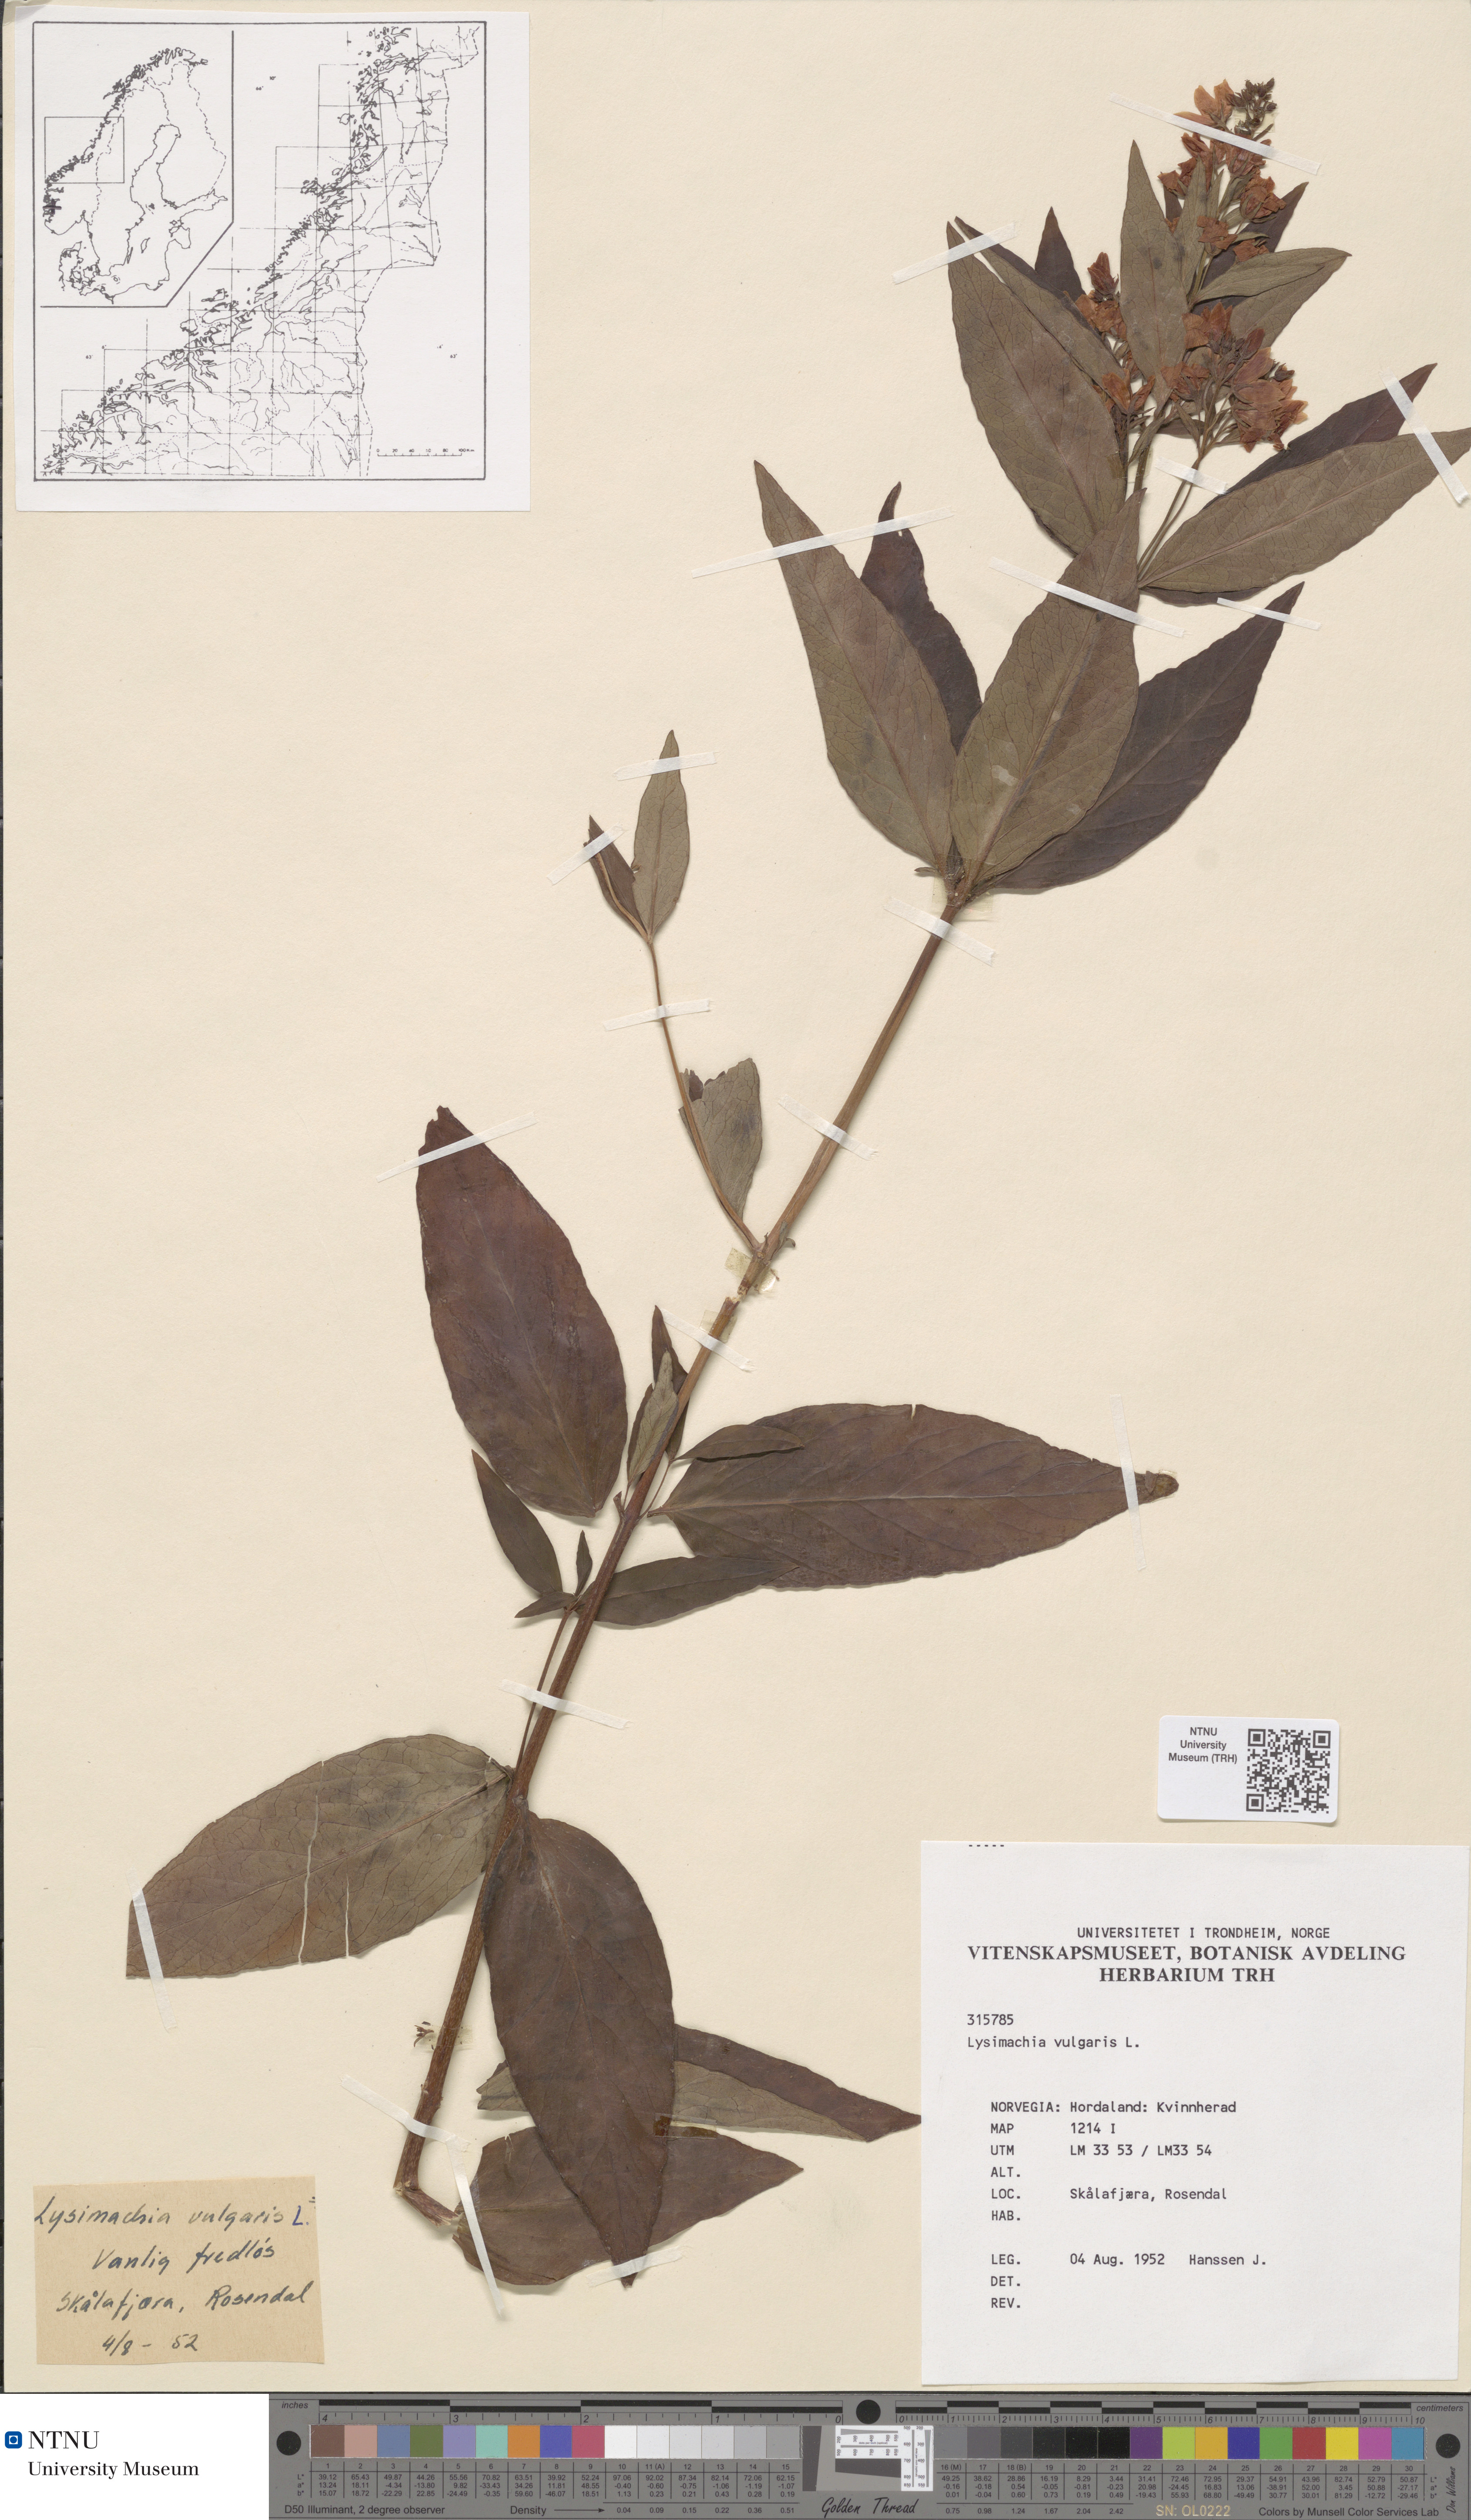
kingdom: Plantae
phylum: Tracheophyta
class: Magnoliopsida
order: Ericales
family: Primulaceae
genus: Lysimachia
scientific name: Lysimachia vulgaris
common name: Yellow loosestrife
